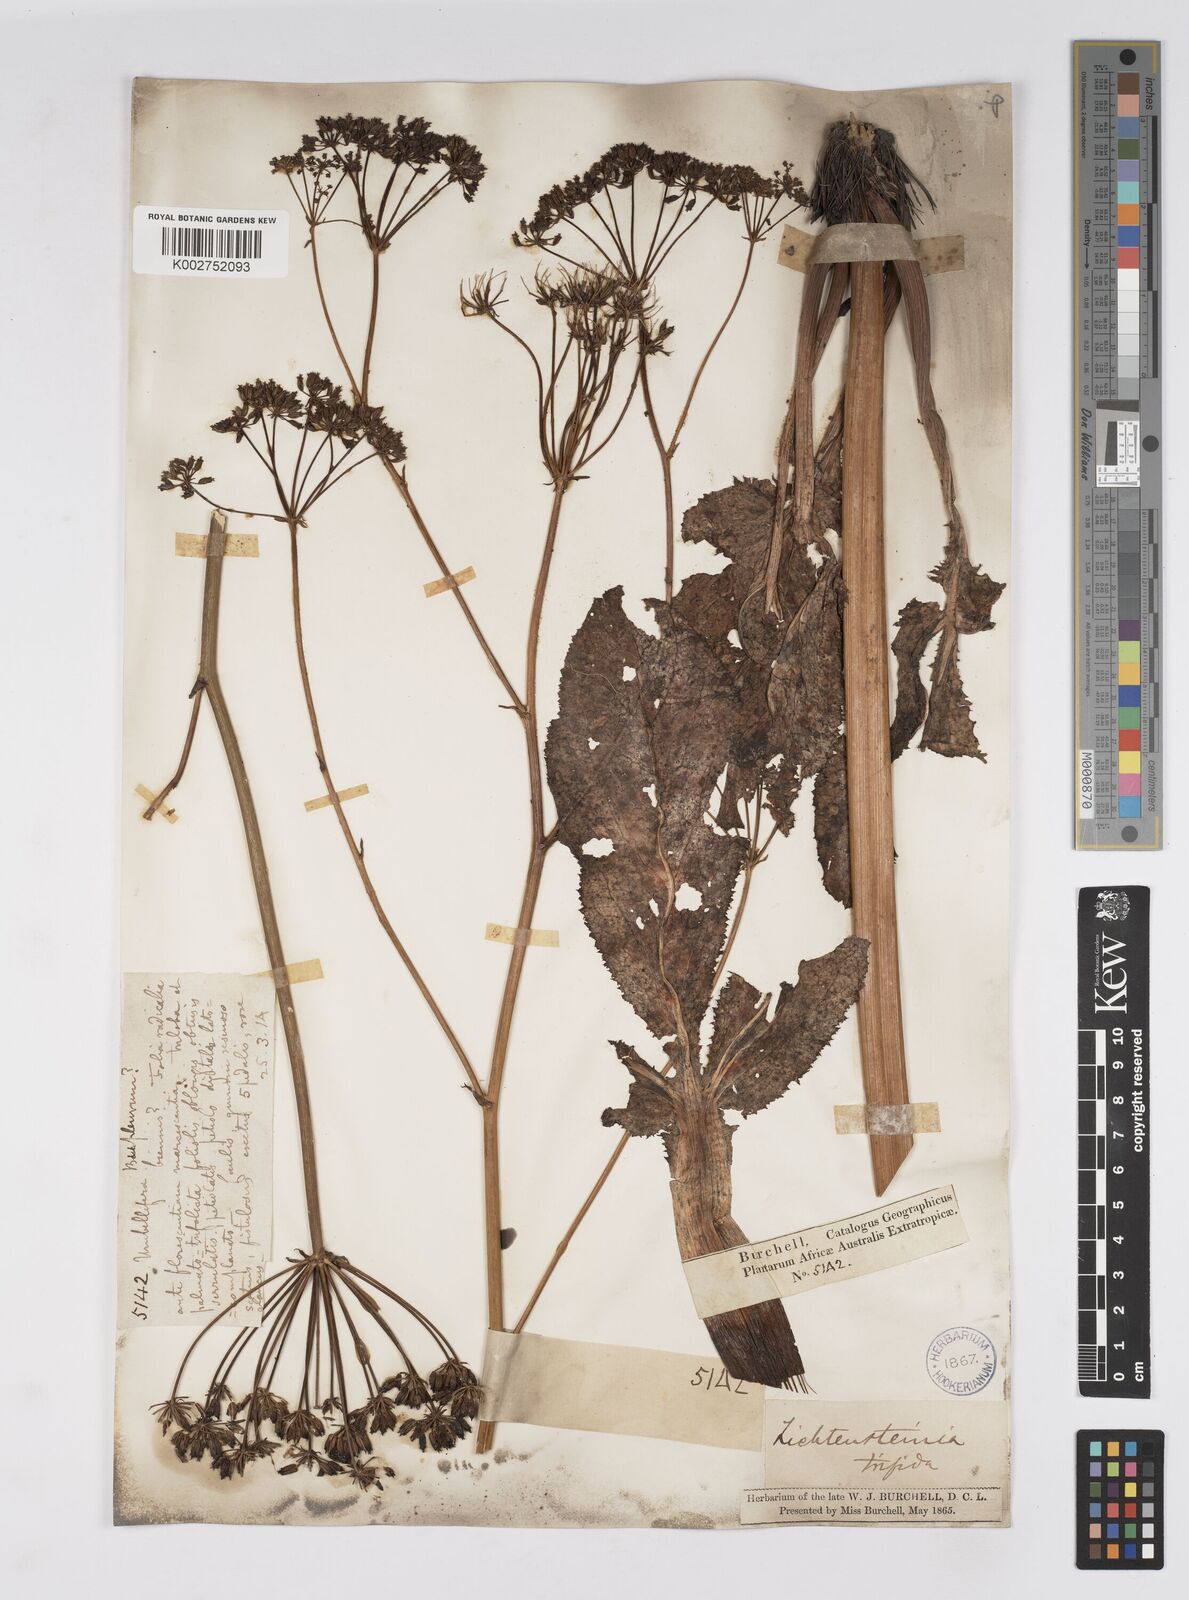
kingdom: Plantae
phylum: Tracheophyta
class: Magnoliopsida
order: Apiales
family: Apiaceae
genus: Lichtensteinia
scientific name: Lichtensteinia trifida
